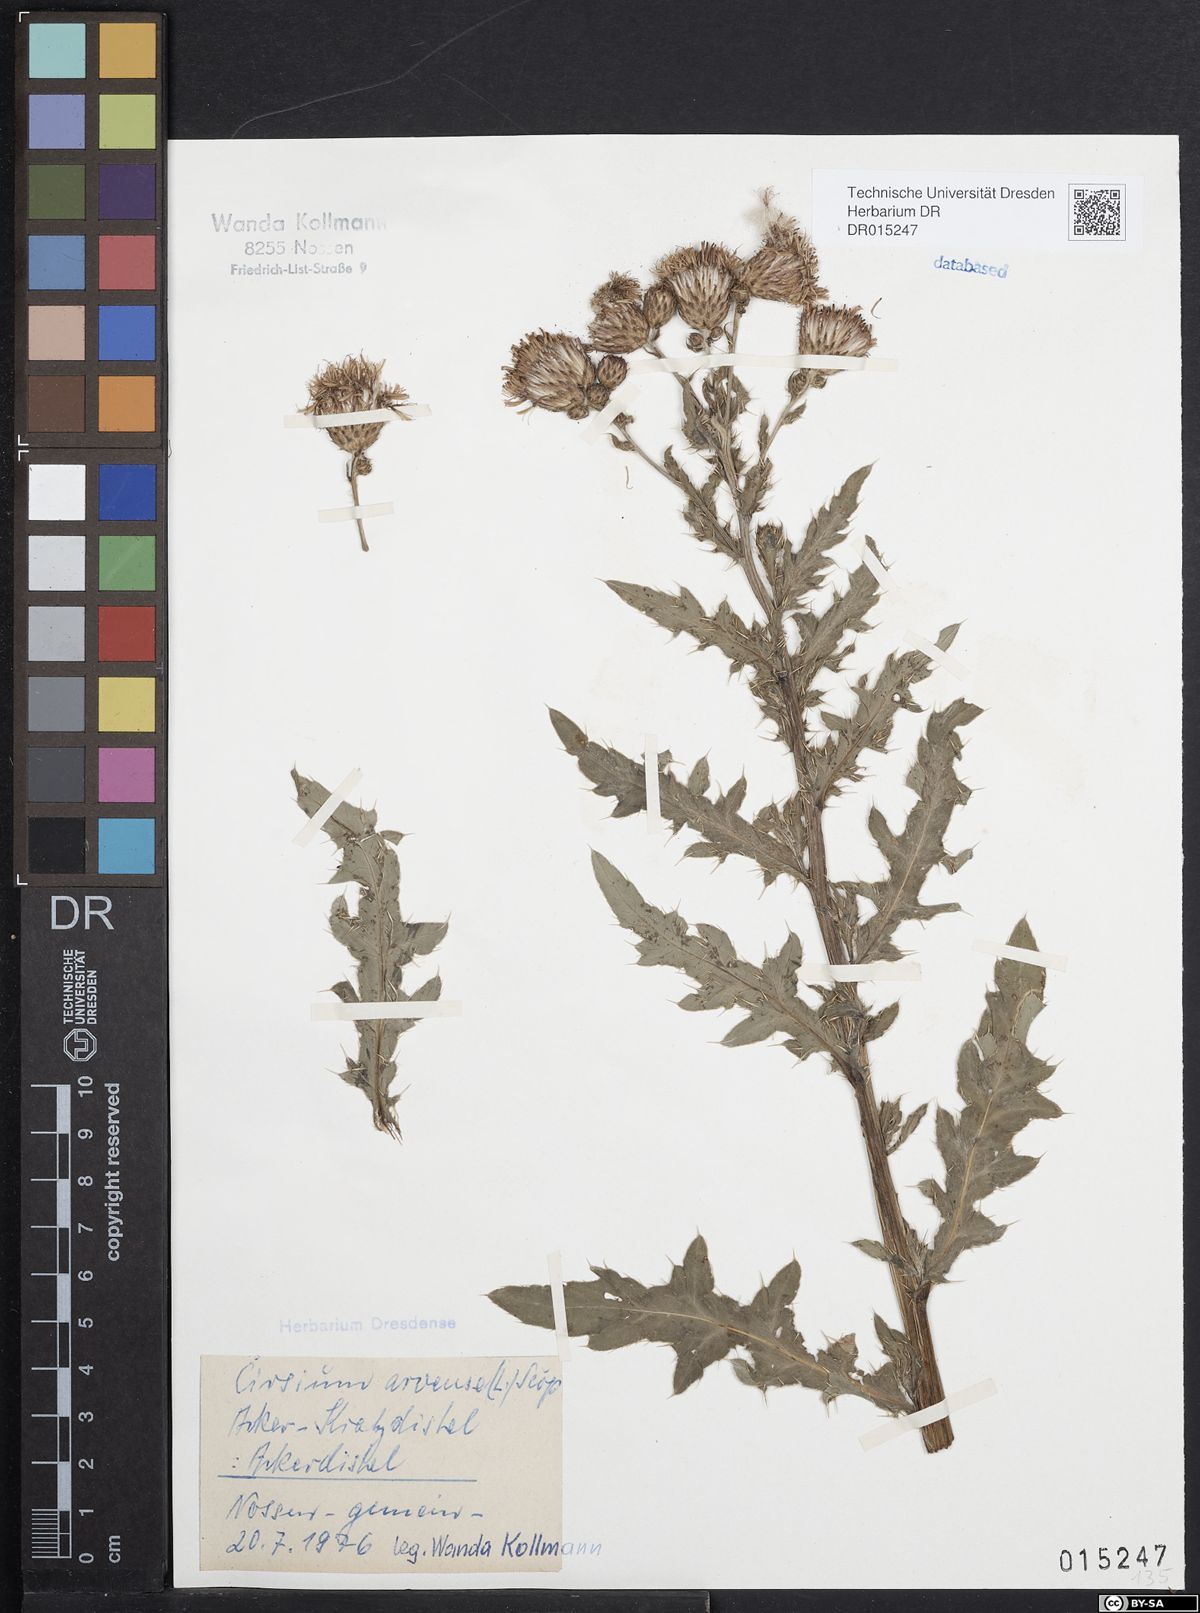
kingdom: Plantae
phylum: Tracheophyta
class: Magnoliopsida
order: Asterales
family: Asteraceae
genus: Cirsium
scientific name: Cirsium arvense
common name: Creeping thistle
